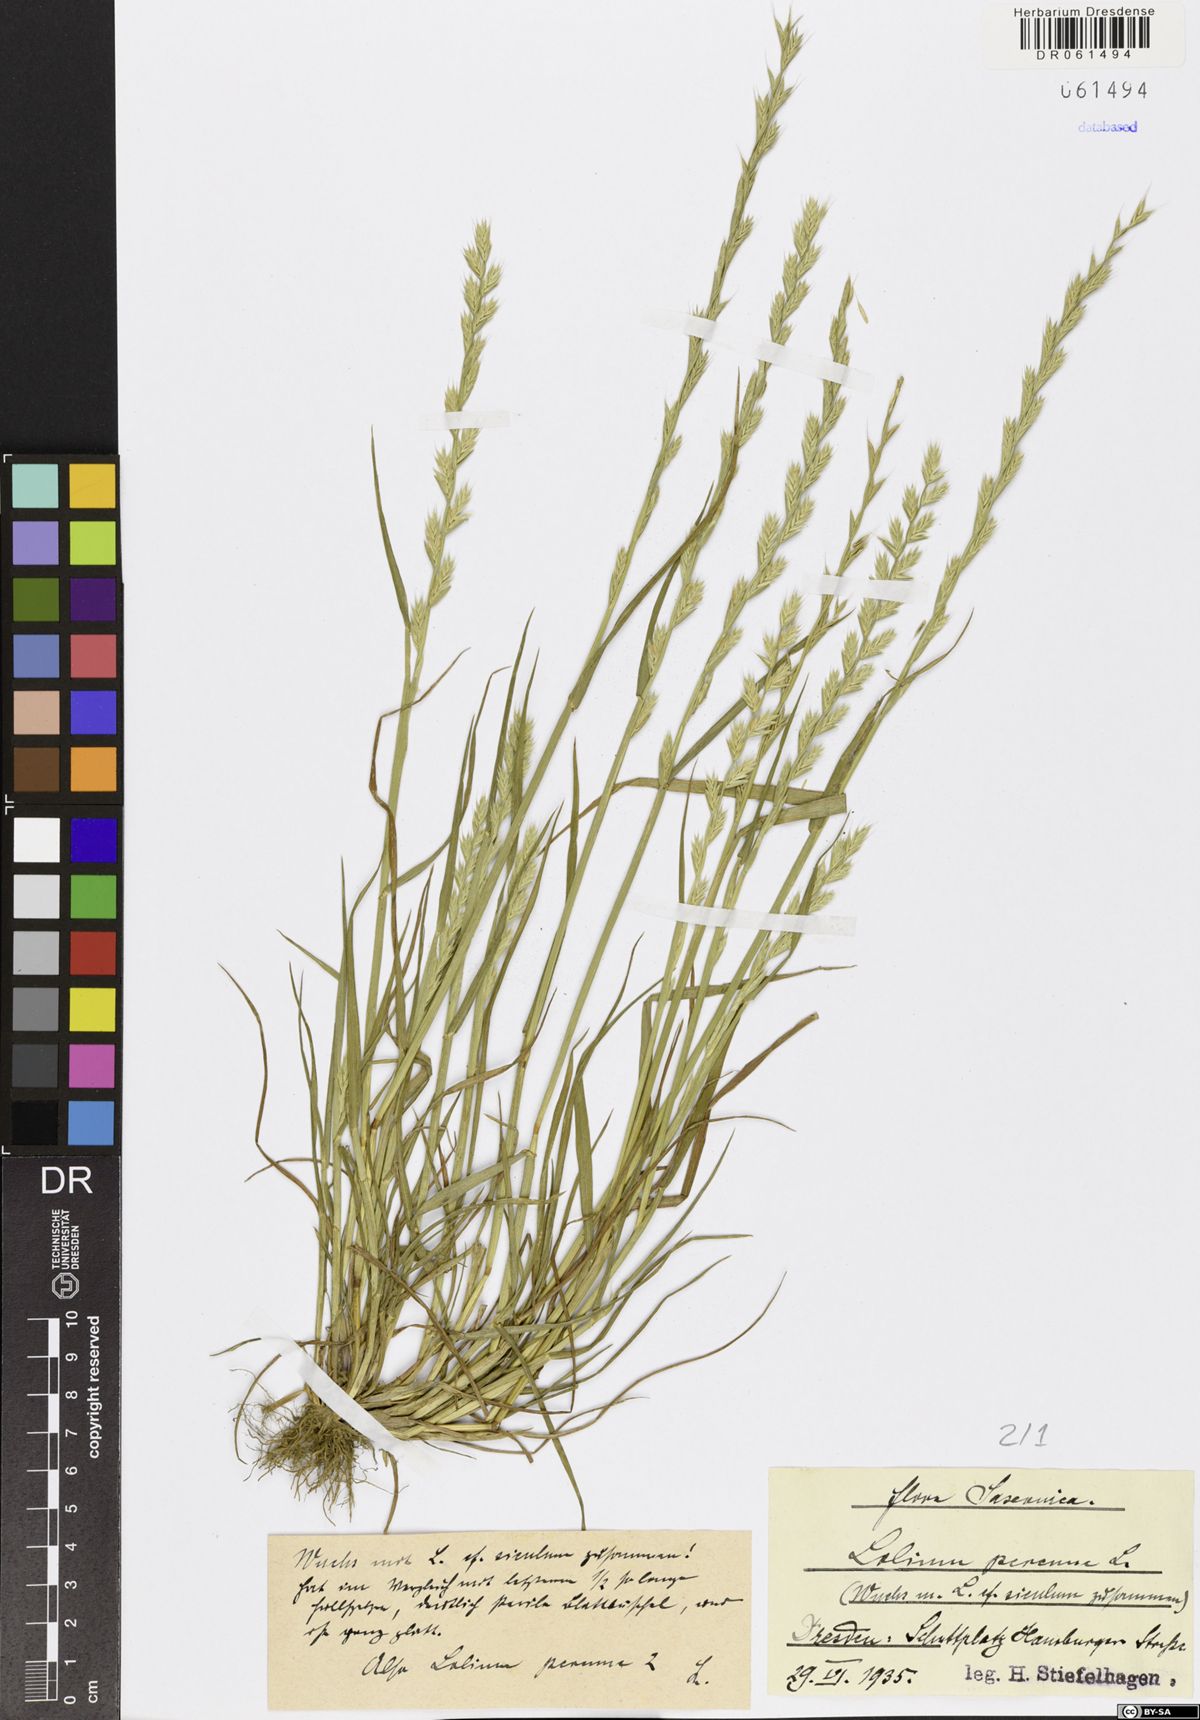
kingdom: Plantae
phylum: Tracheophyta
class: Liliopsida
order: Poales
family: Poaceae
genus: Lolium
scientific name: Lolium perenne
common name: Perennial ryegrass
